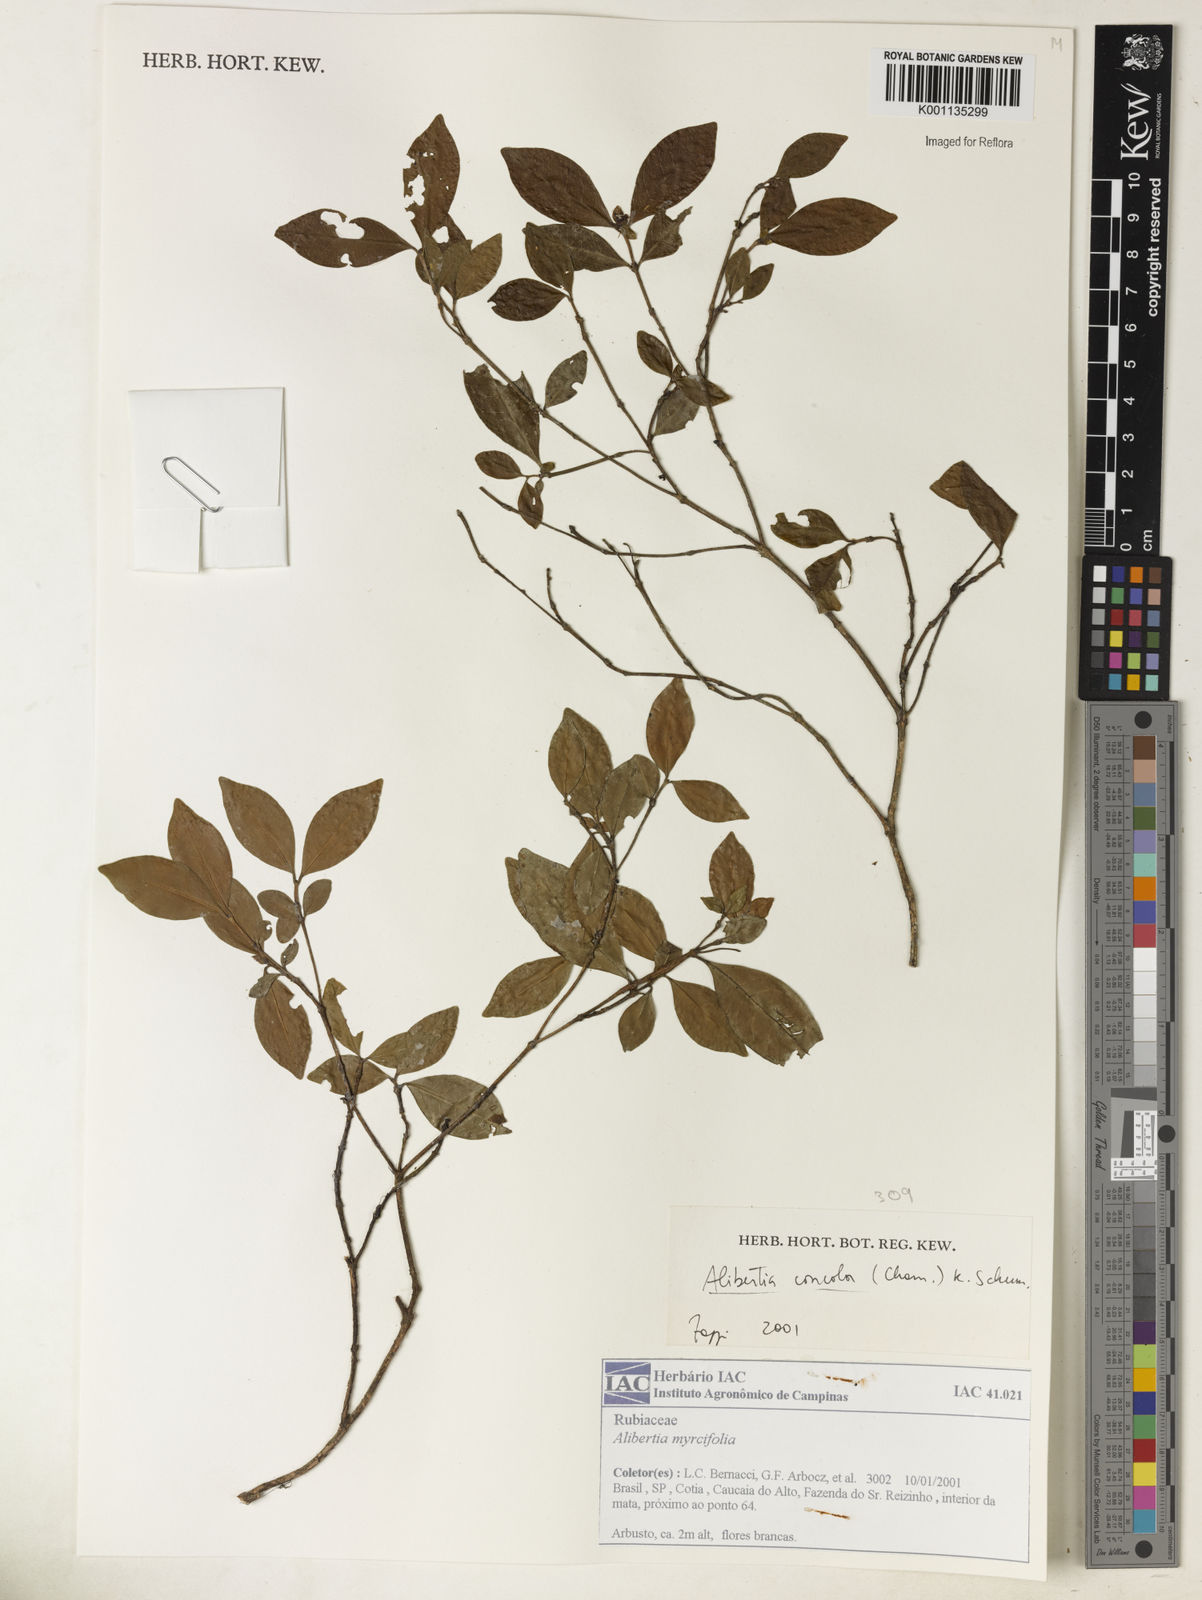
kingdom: Plantae
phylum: Tracheophyta
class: Magnoliopsida
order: Gentianales
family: Rubiaceae
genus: Cordiera
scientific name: Cordiera concolor
